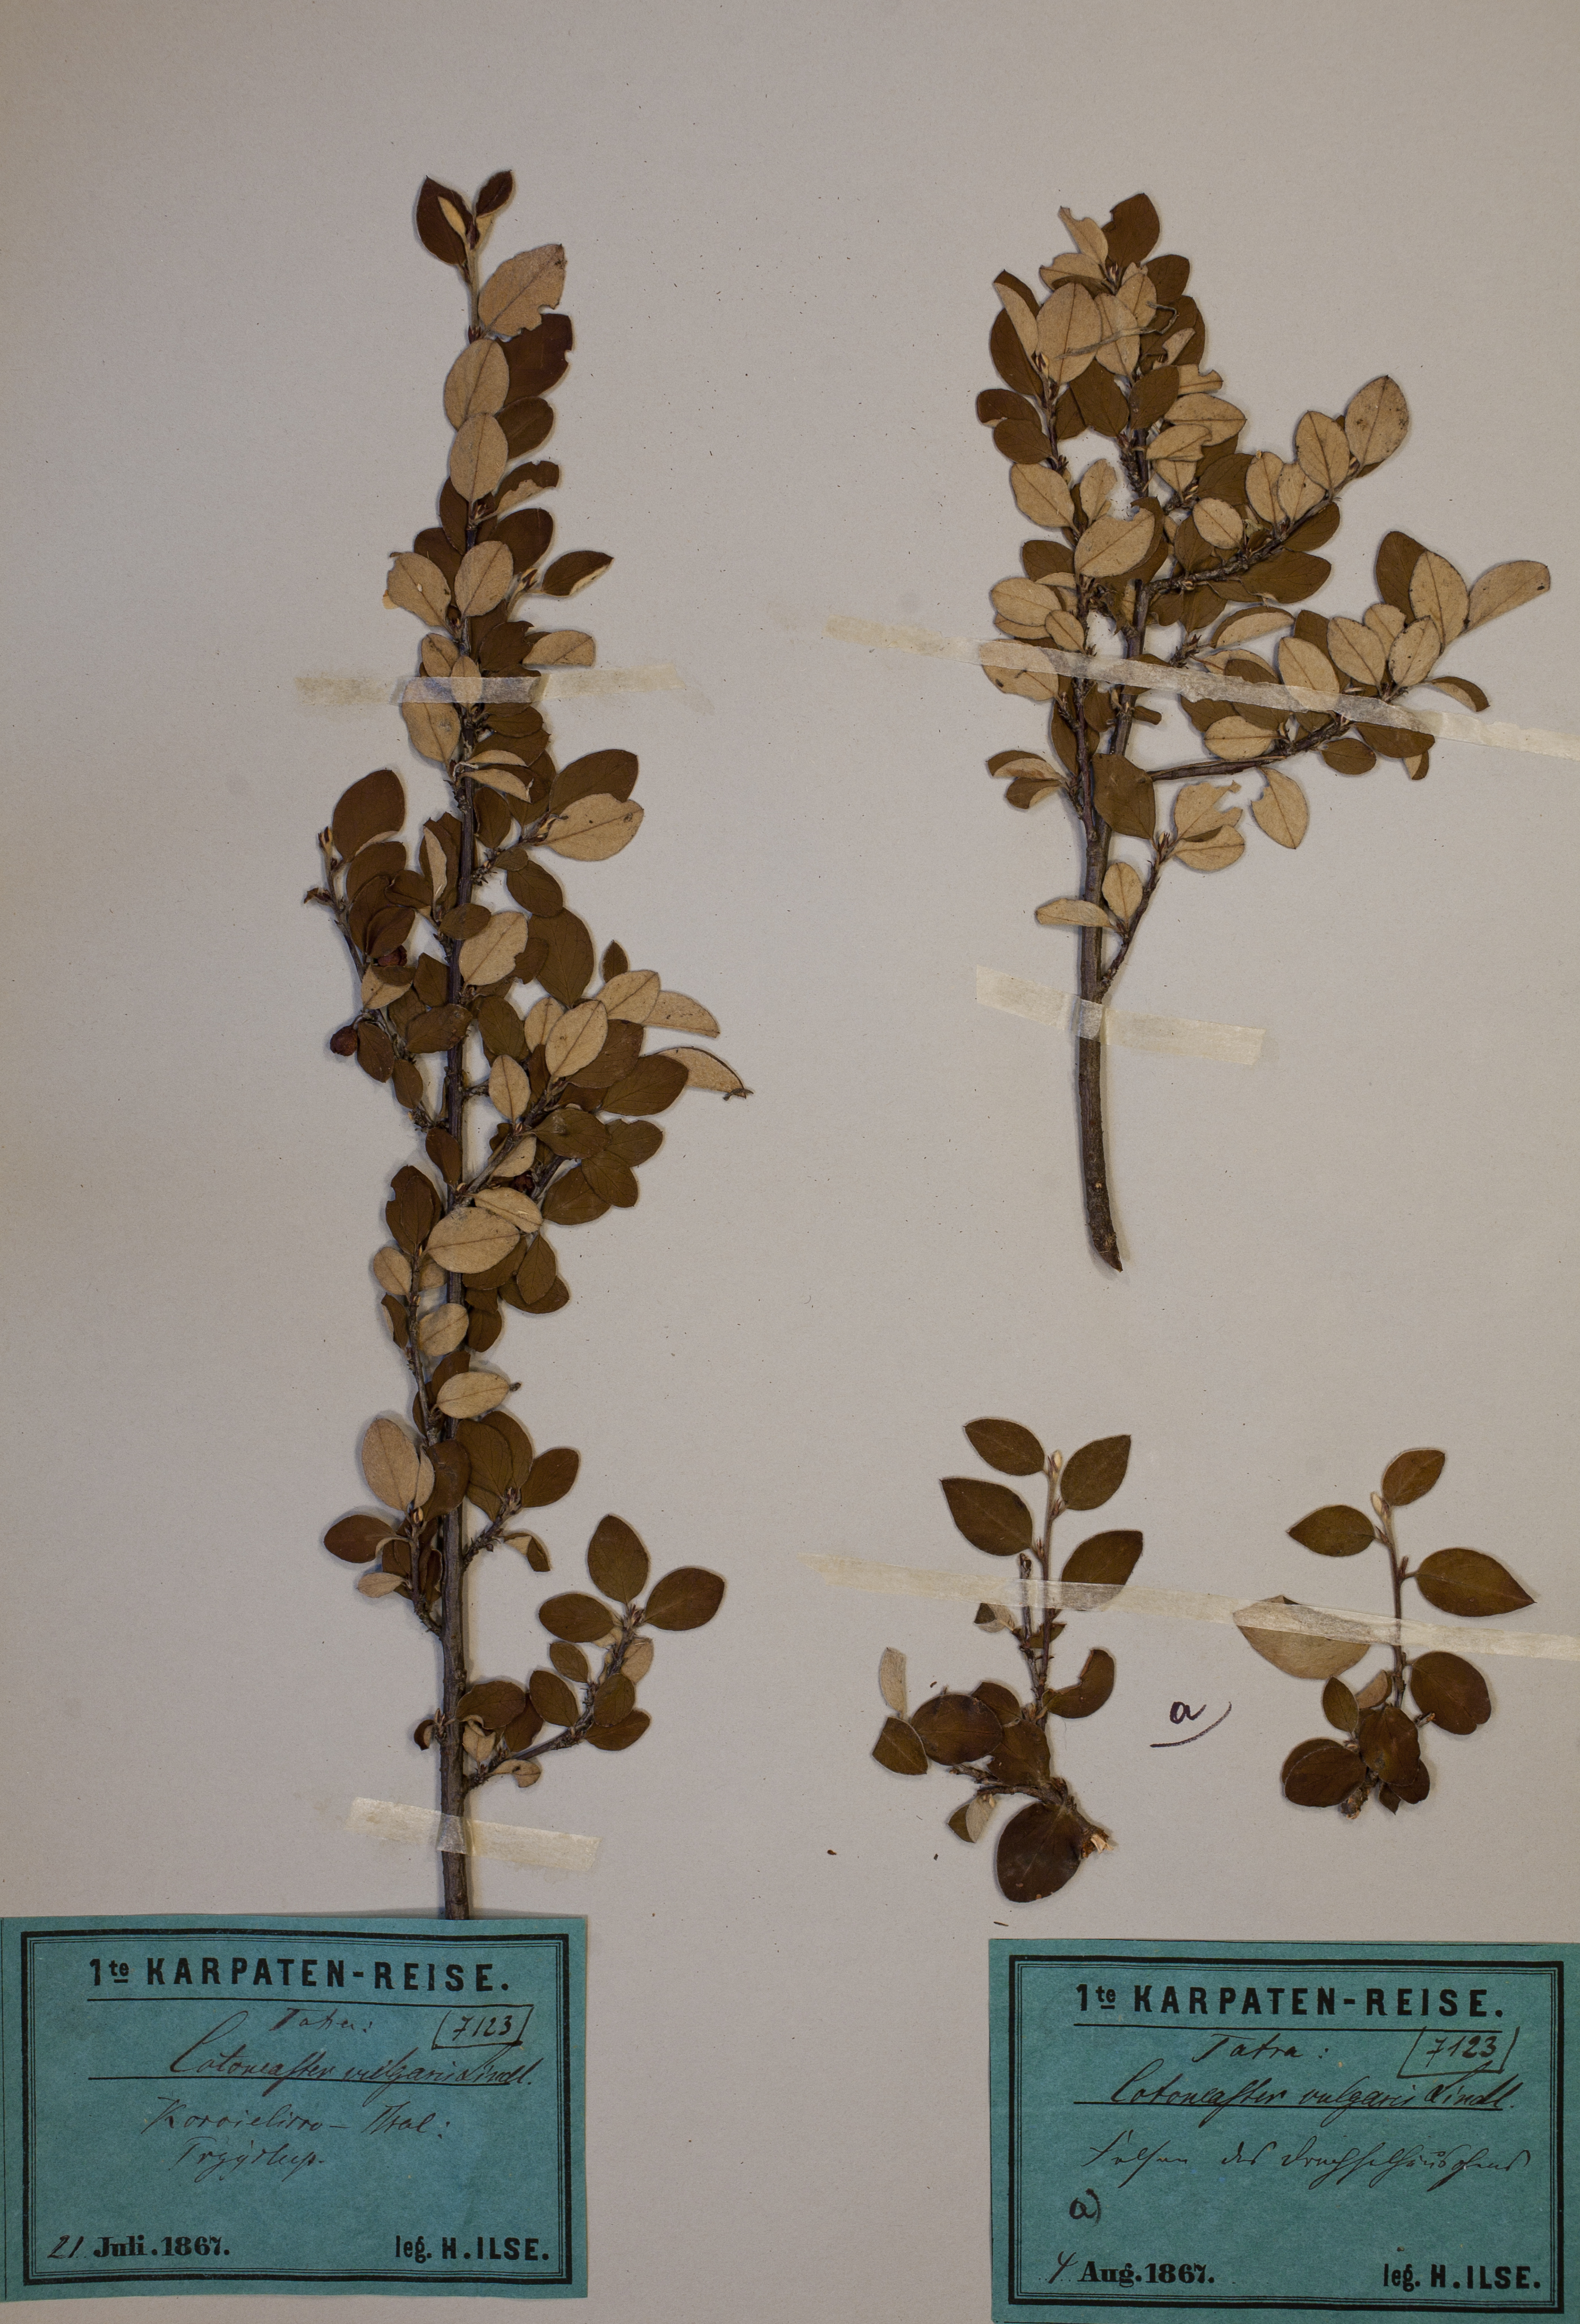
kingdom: Plantae
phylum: Tracheophyta
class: Magnoliopsida
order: Rosales
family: Rosaceae
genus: Cotoneaster
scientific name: Cotoneaster integerrimus
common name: Wild cotoneaster
